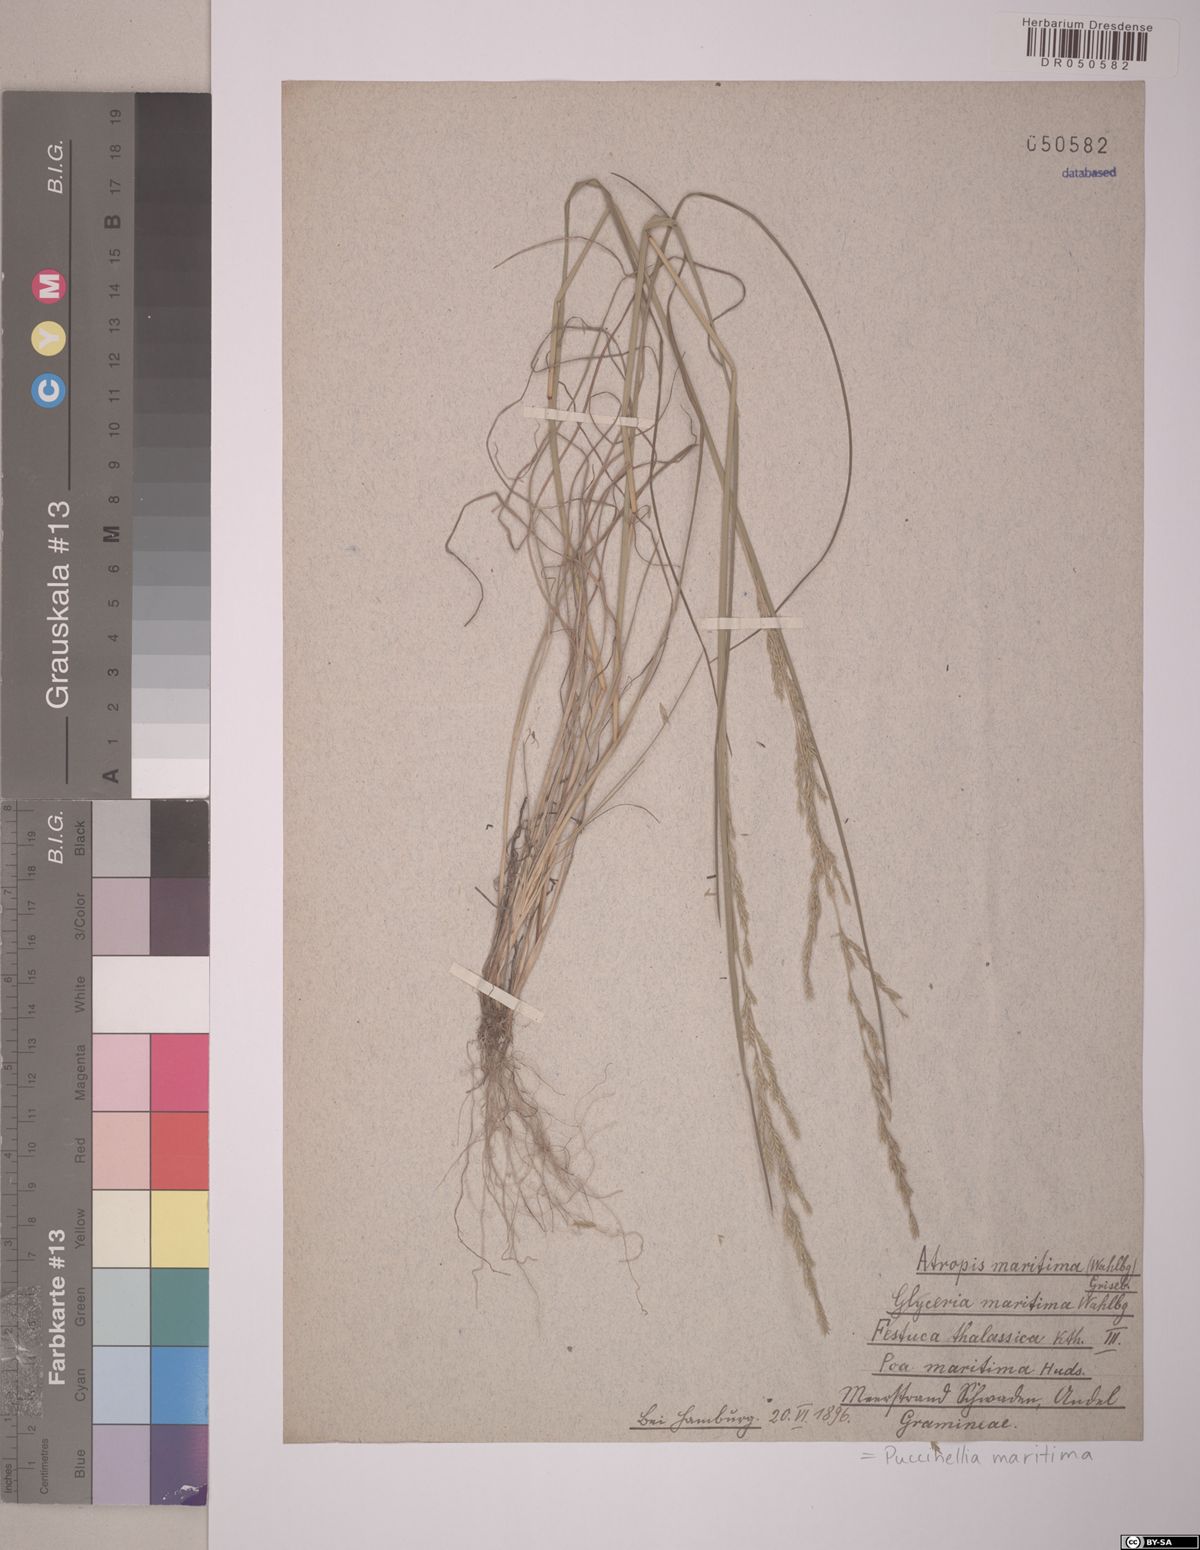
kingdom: Plantae
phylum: Tracheophyta
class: Liliopsida
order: Poales
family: Poaceae
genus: Puccinellia
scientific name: Puccinellia maritima
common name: Common saltmarsh grass
